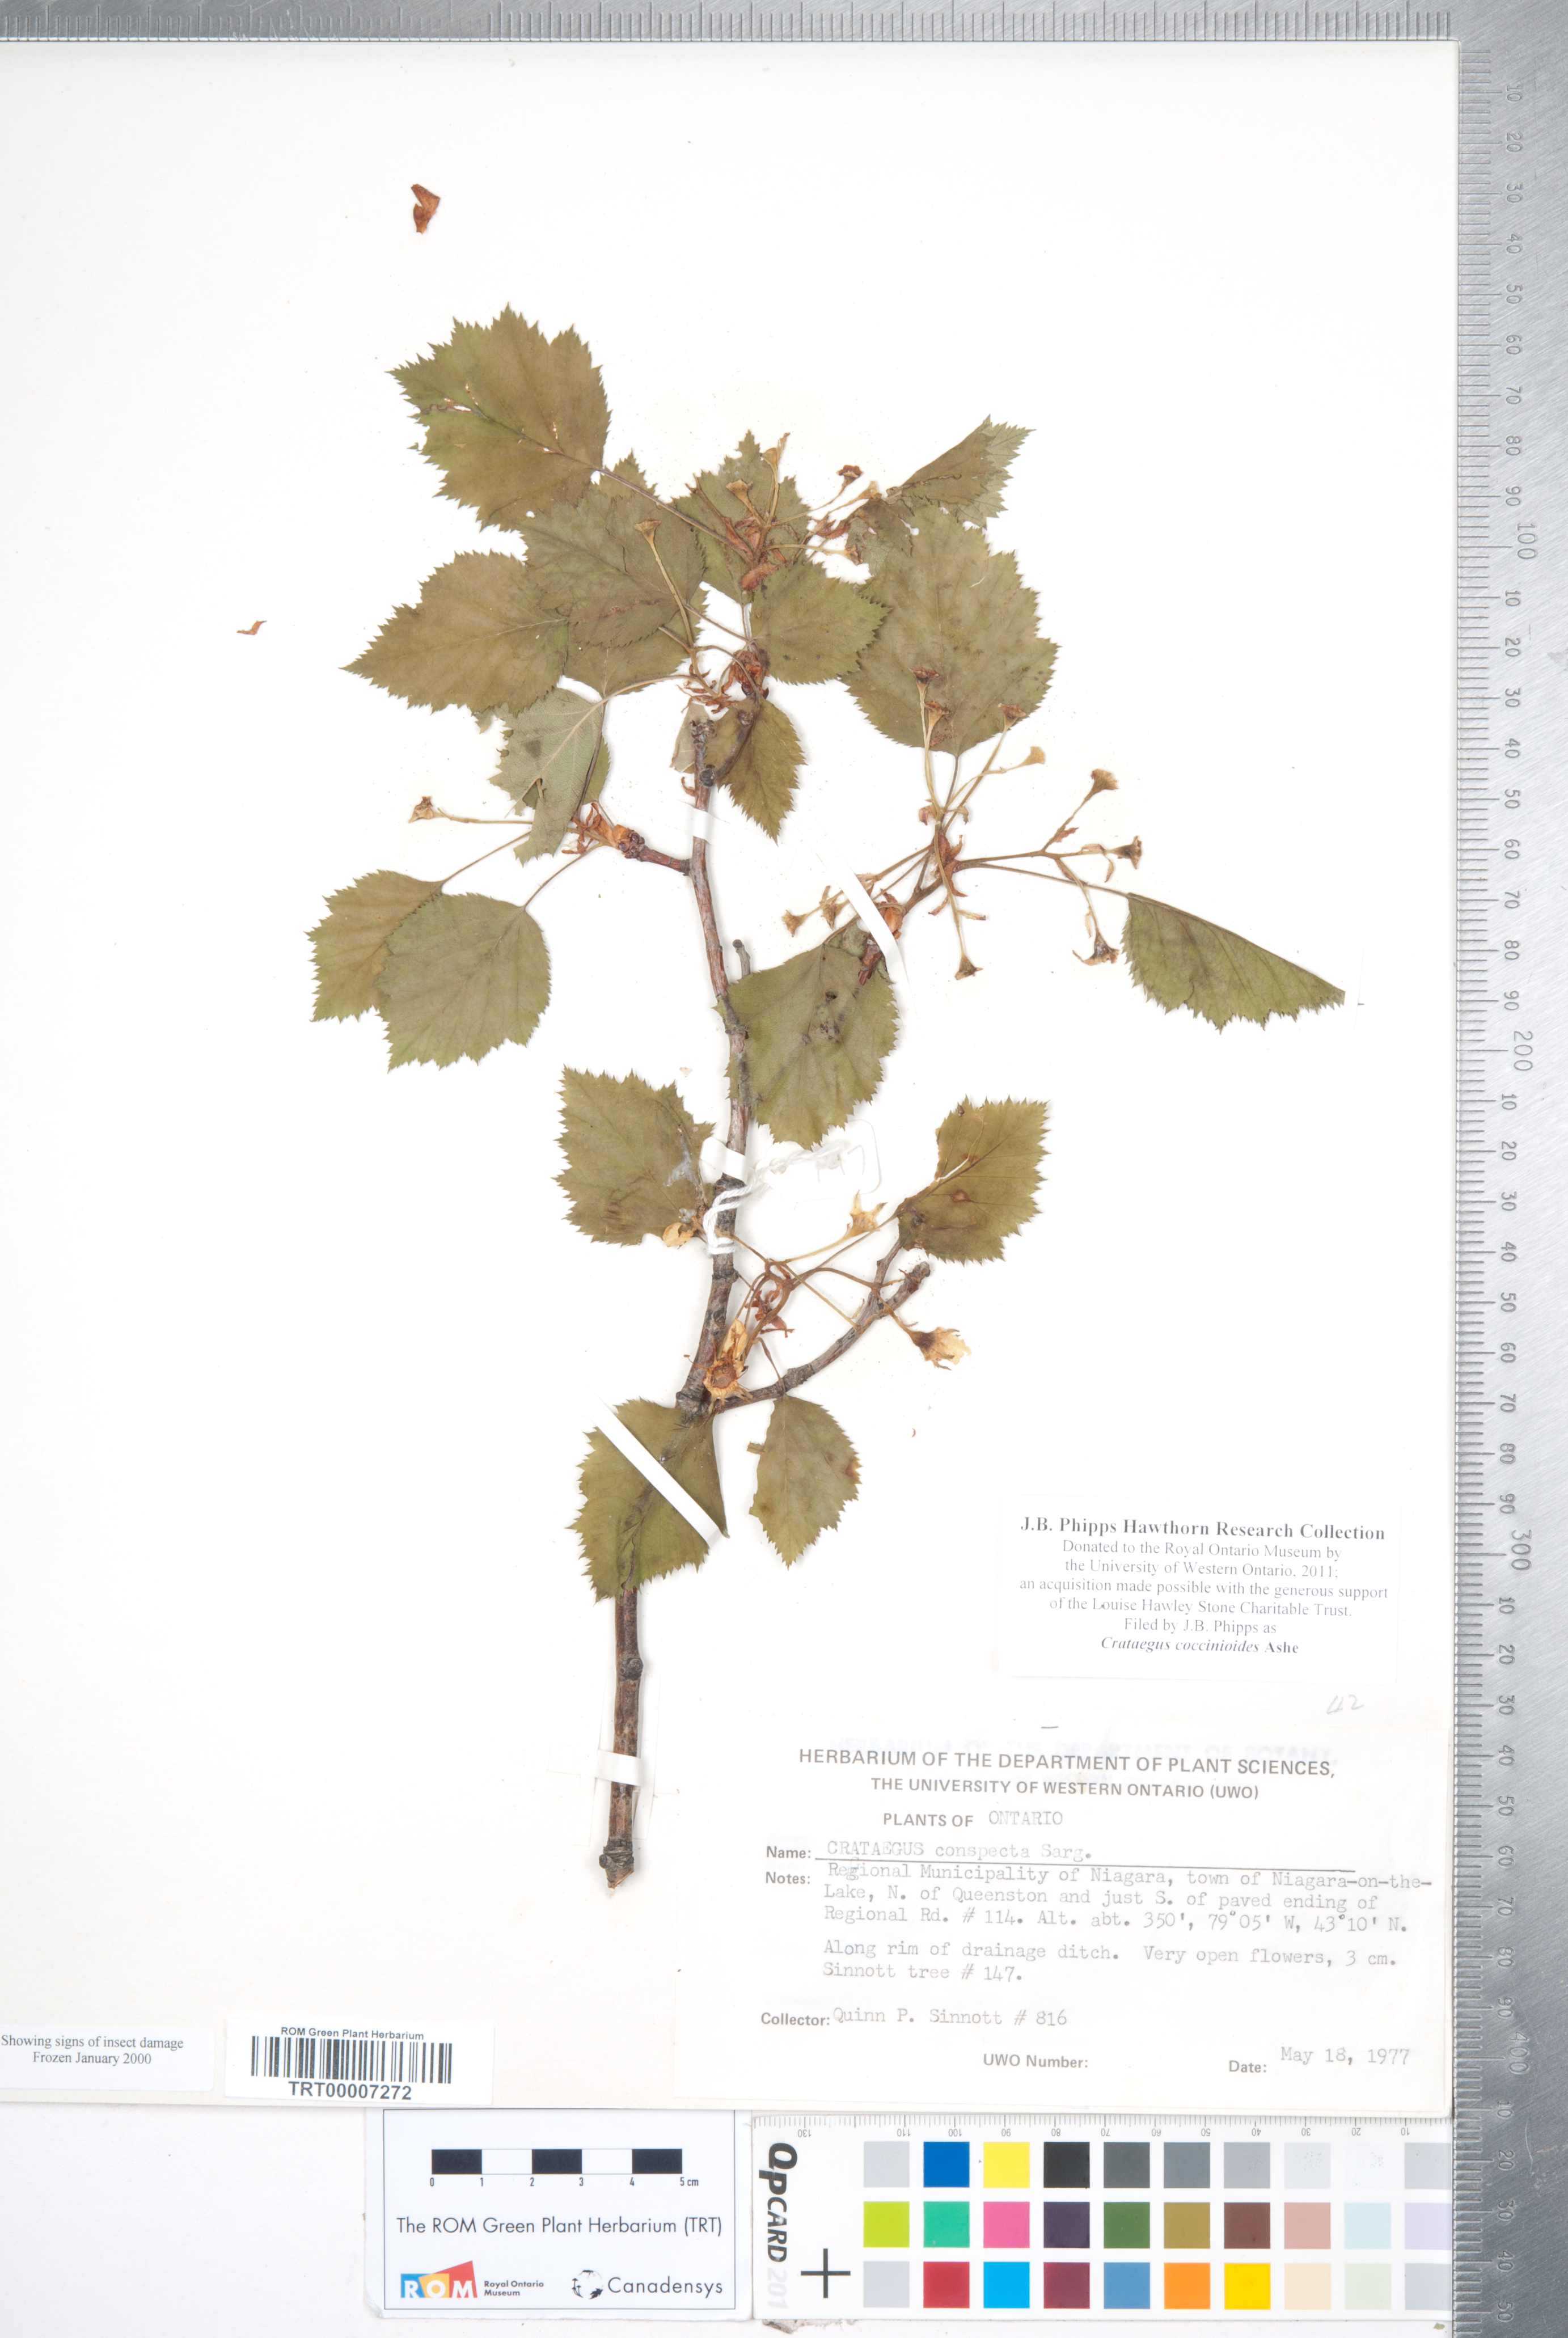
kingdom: Plantae
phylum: Tracheophyta
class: Magnoliopsida
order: Rosales
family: Rosaceae
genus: Crataegus
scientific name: Crataegus coccinioides
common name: Large-flowered cockspurthorn
